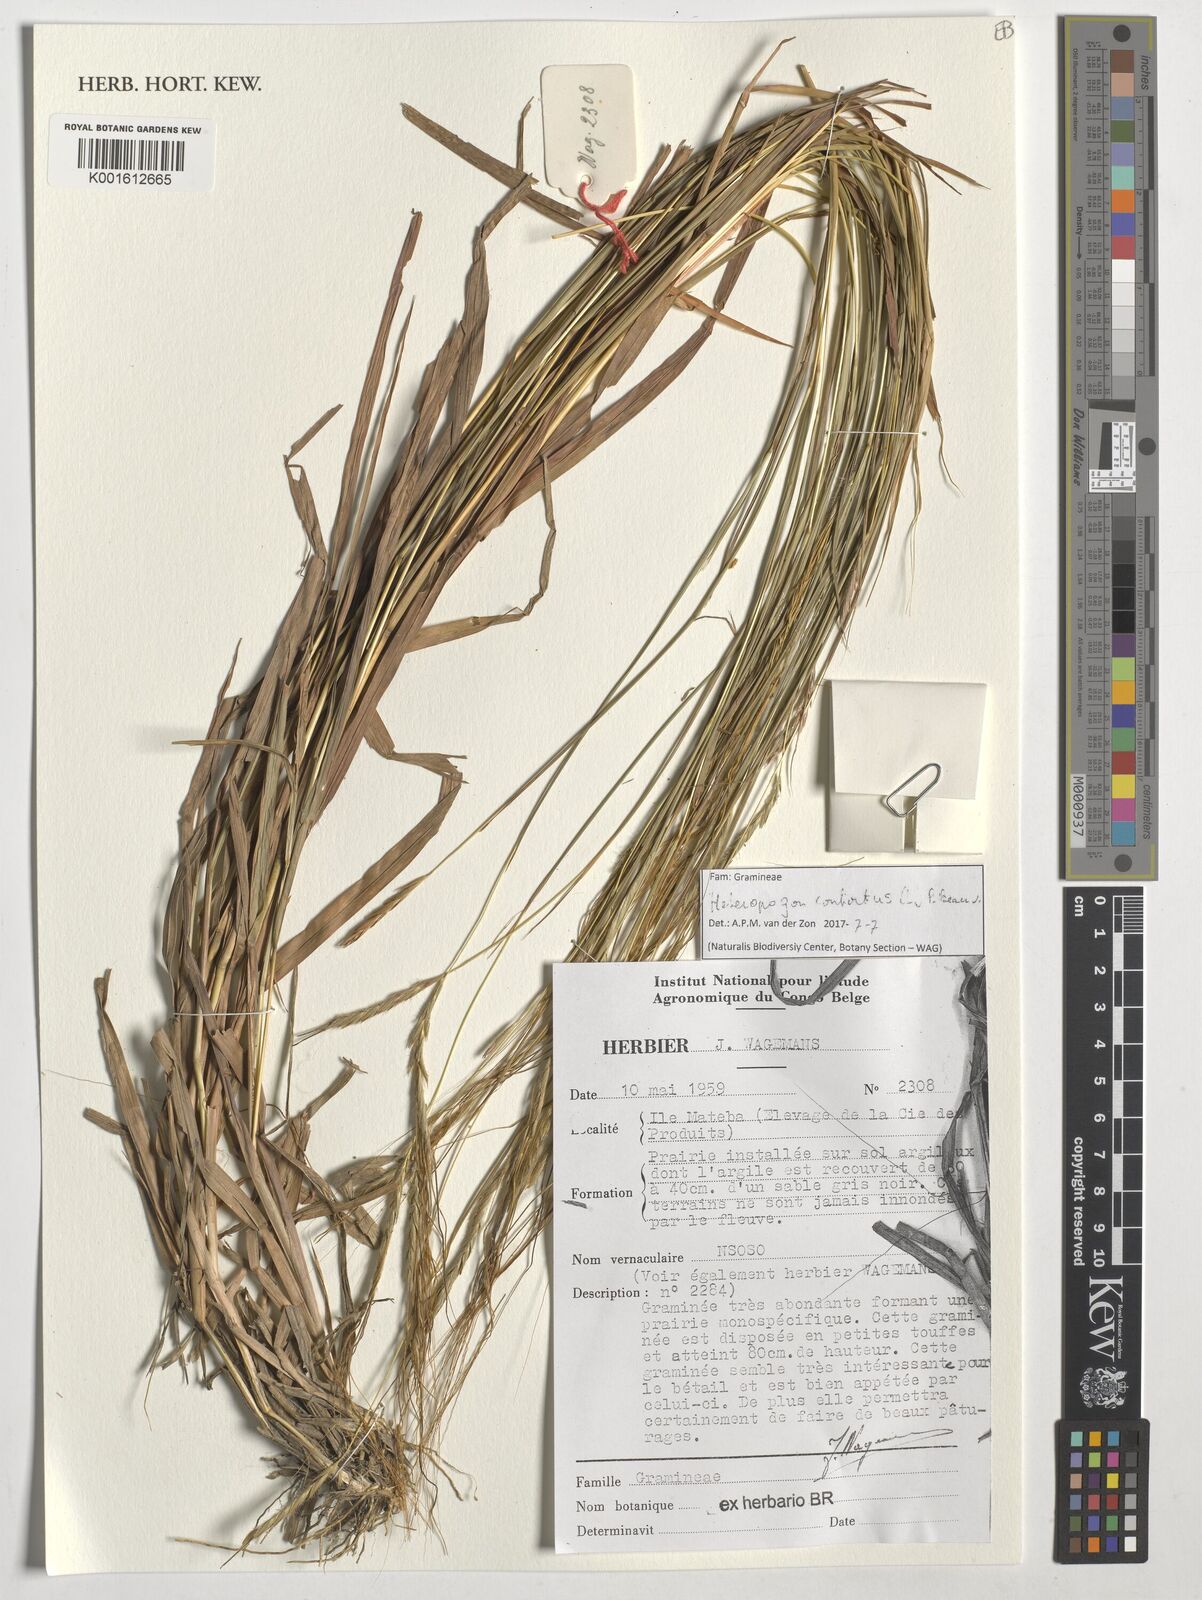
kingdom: Plantae
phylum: Tracheophyta
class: Liliopsida
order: Poales
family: Poaceae
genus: Heteropogon
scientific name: Heteropogon contortus
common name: Tanglehead
